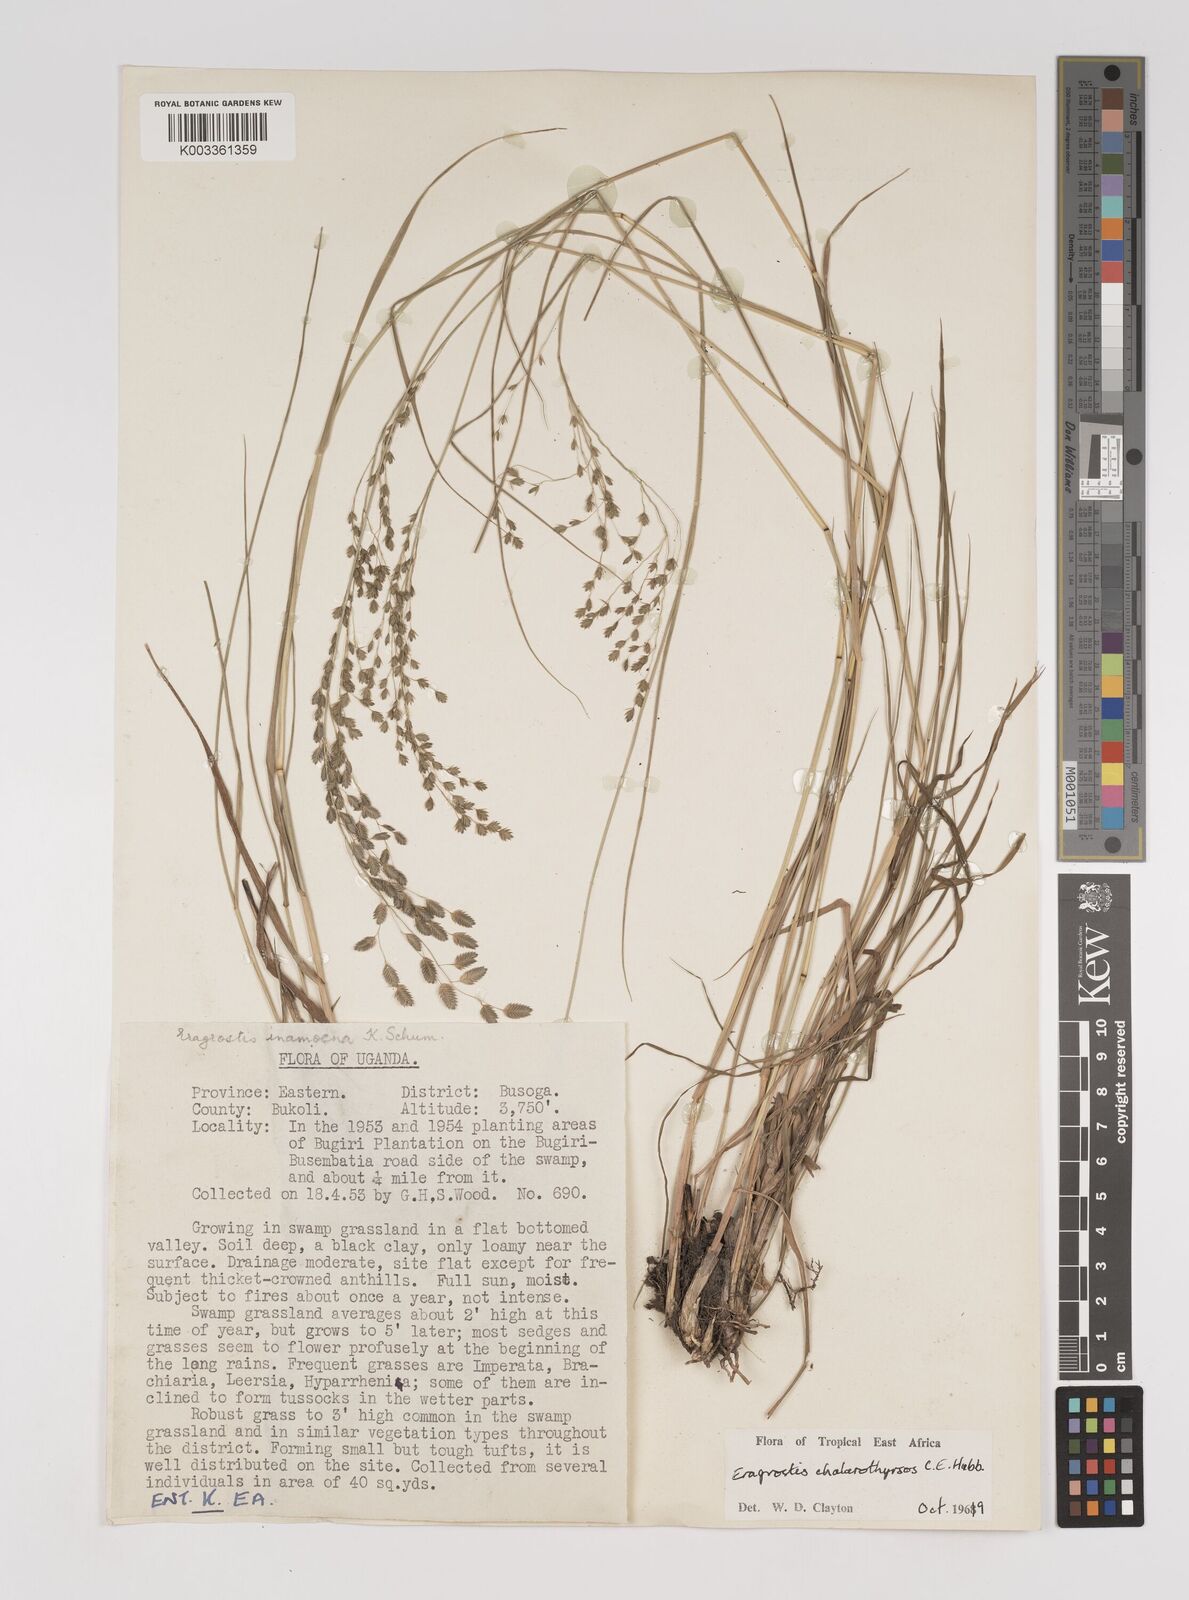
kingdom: Plantae
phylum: Tracheophyta
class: Liliopsida
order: Poales
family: Poaceae
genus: Eragrostis
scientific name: Eragrostis chalarothyrsos
